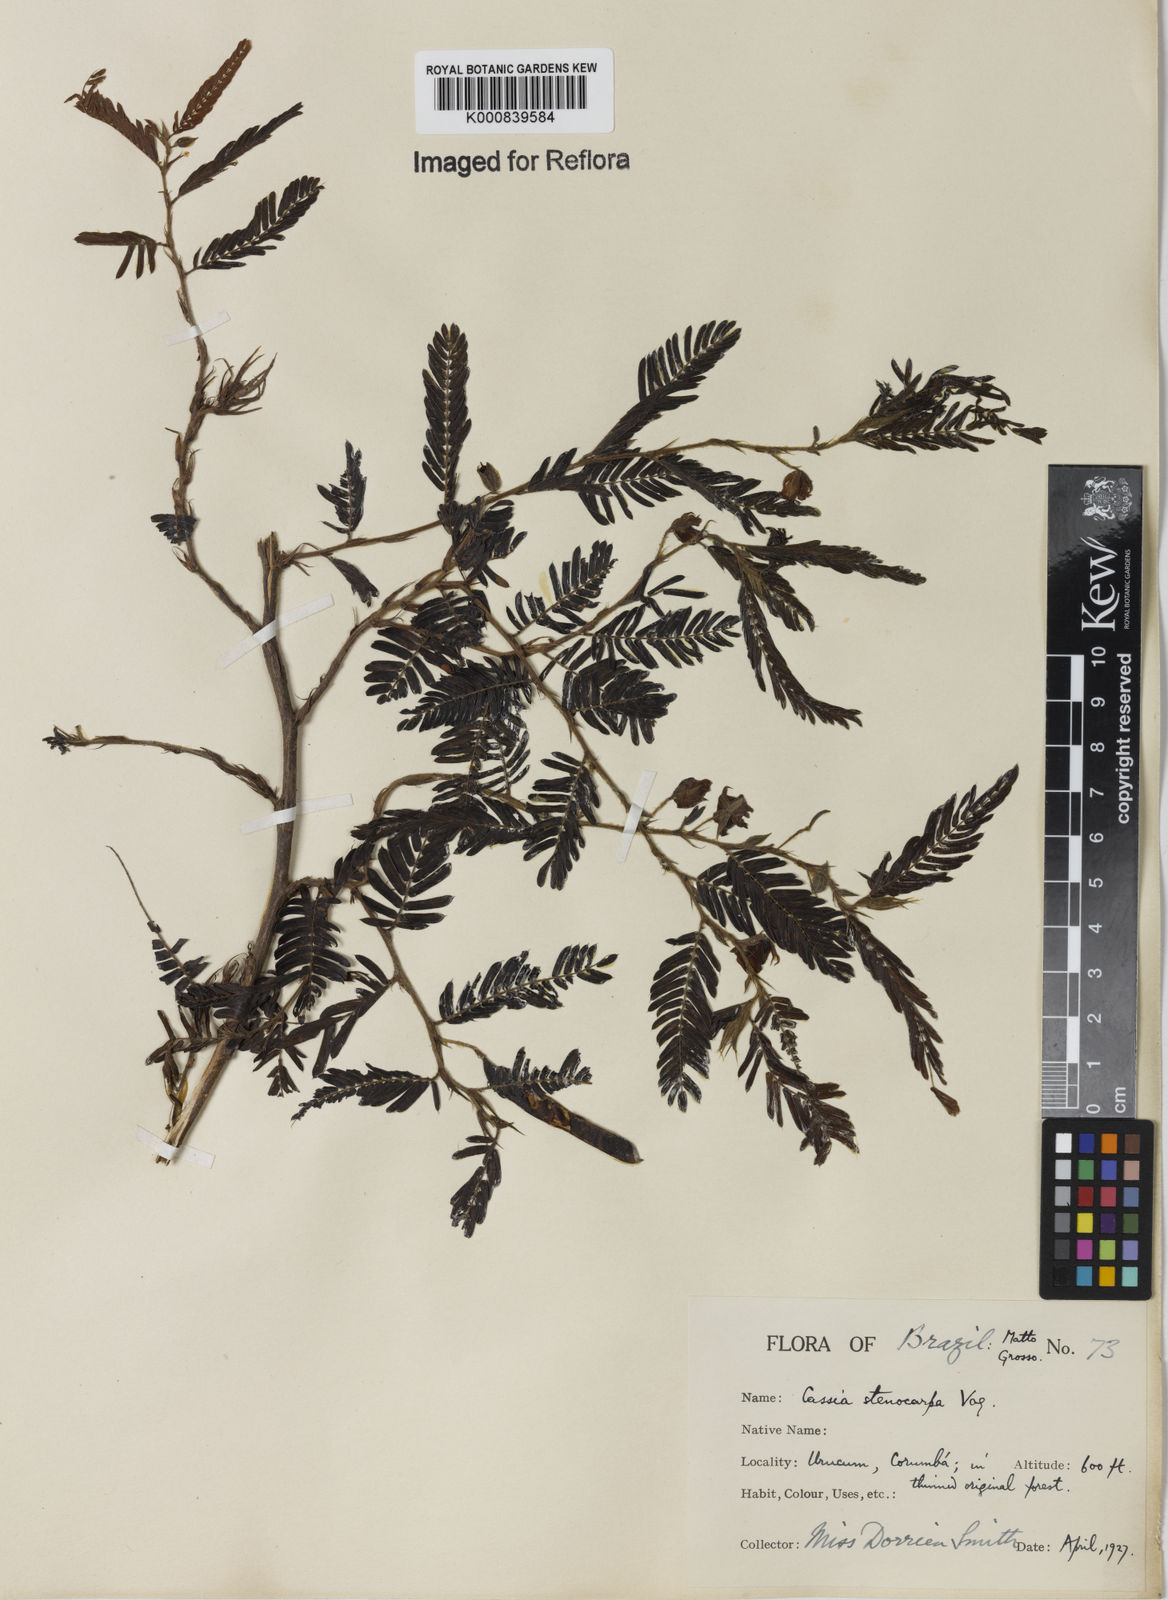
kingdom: Plantae
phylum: Tracheophyta
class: Magnoliopsida
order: Fabales
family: Fabaceae
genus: Chamaecrista
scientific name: Chamaecrista nictitans
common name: Sensitive cassia
